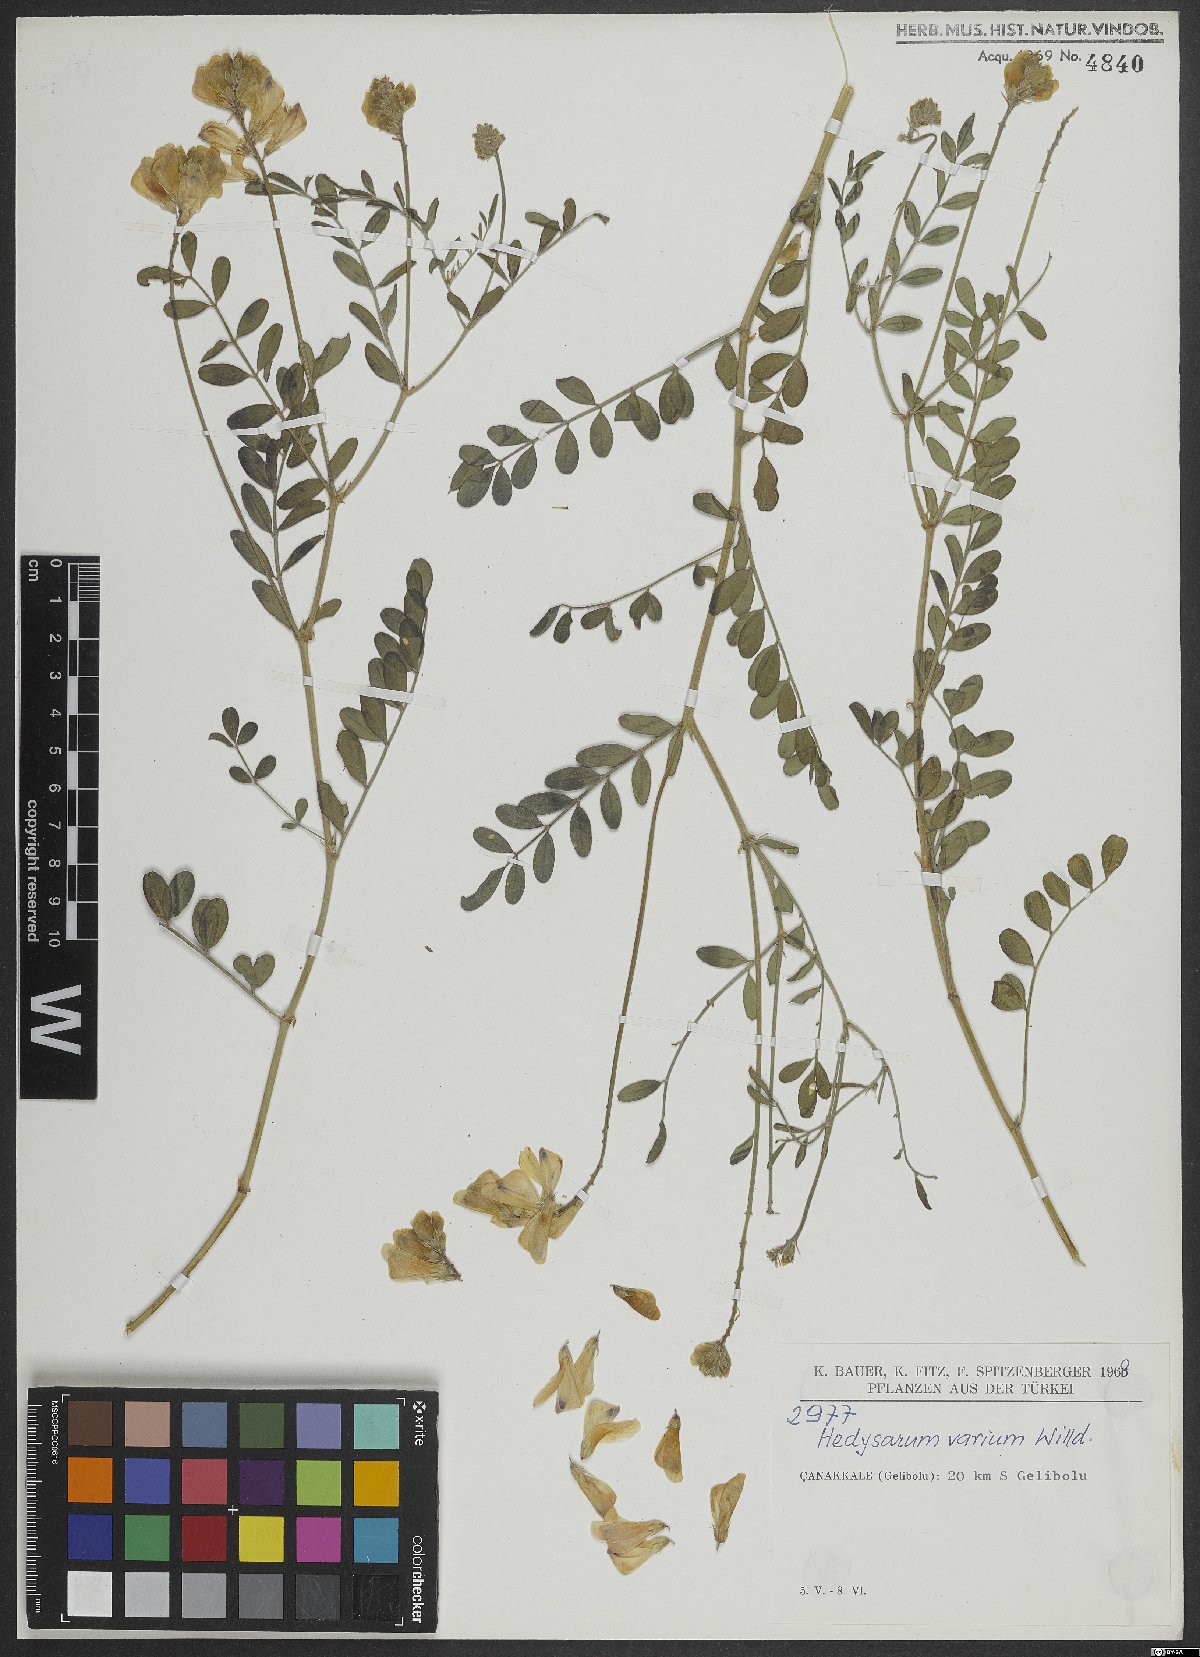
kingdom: Plantae
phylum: Tracheophyta
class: Magnoliopsida
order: Fabales
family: Fabaceae
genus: Hedysarum
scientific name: Hedysarum varium
